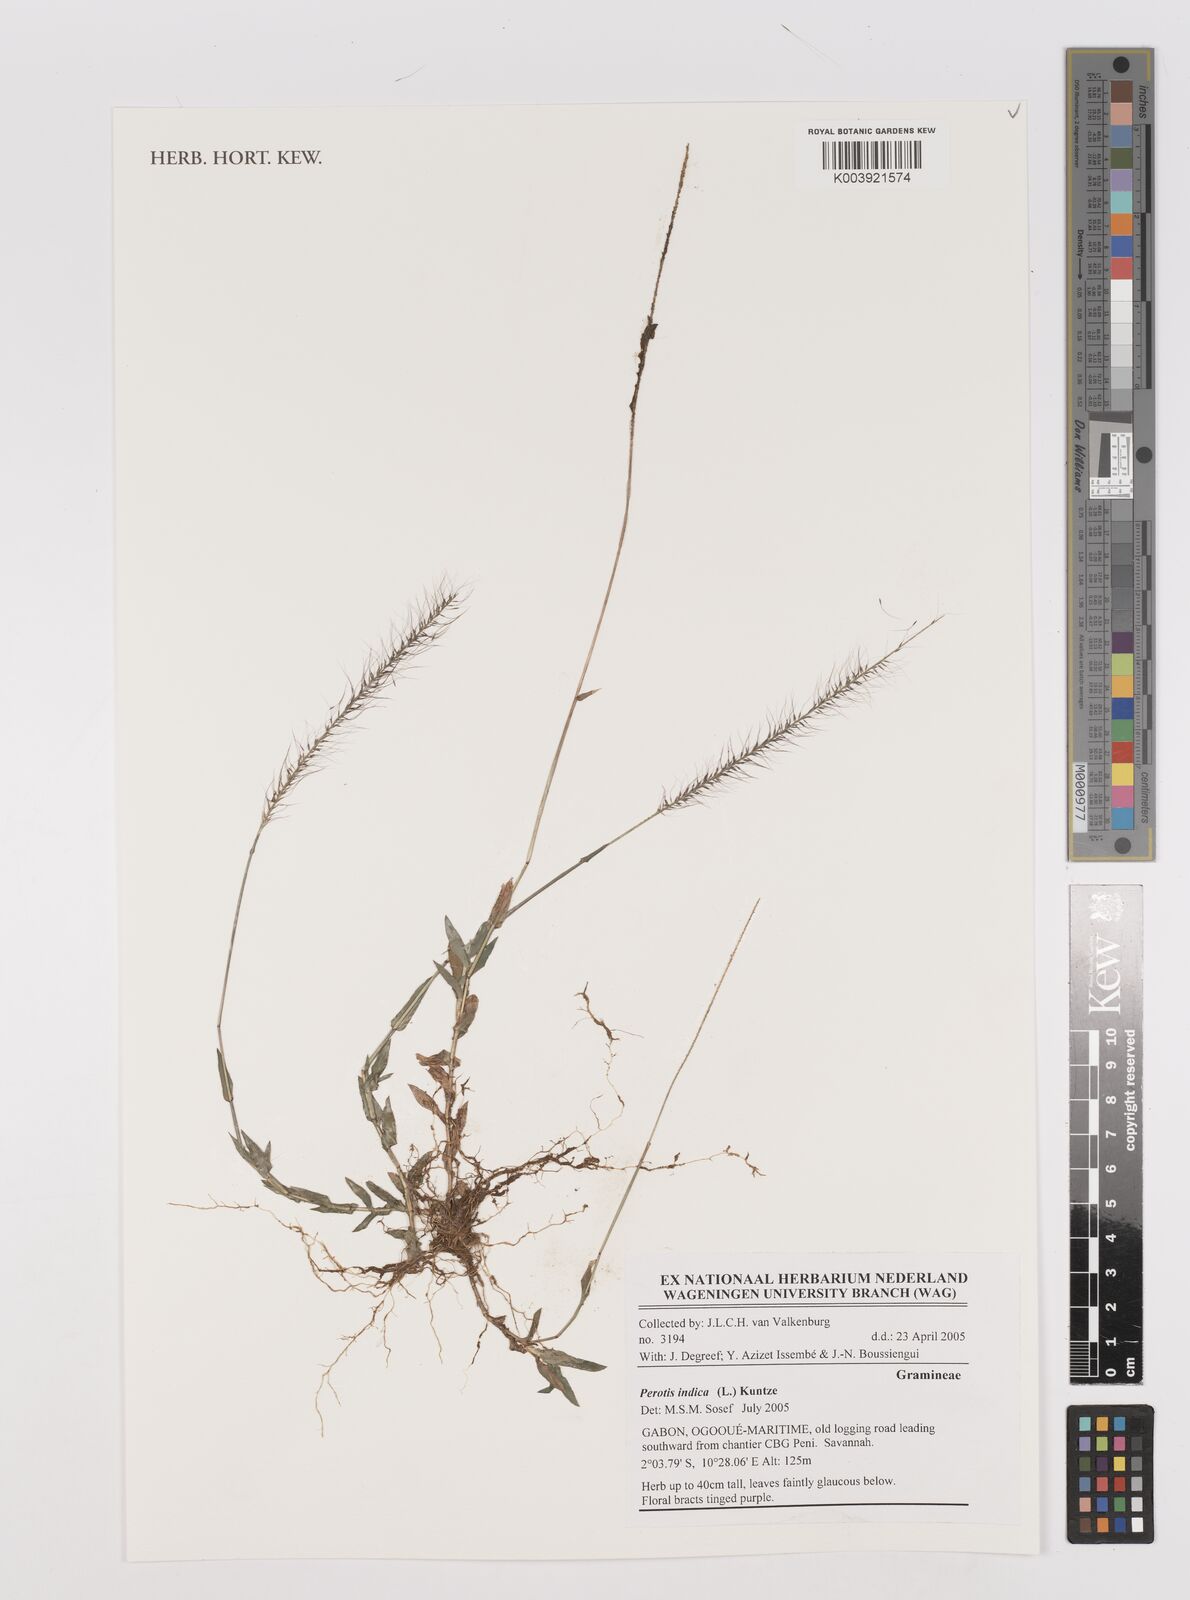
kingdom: Plantae
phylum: Tracheophyta
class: Liliopsida
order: Poales
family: Poaceae
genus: Perotis
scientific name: Perotis indica
